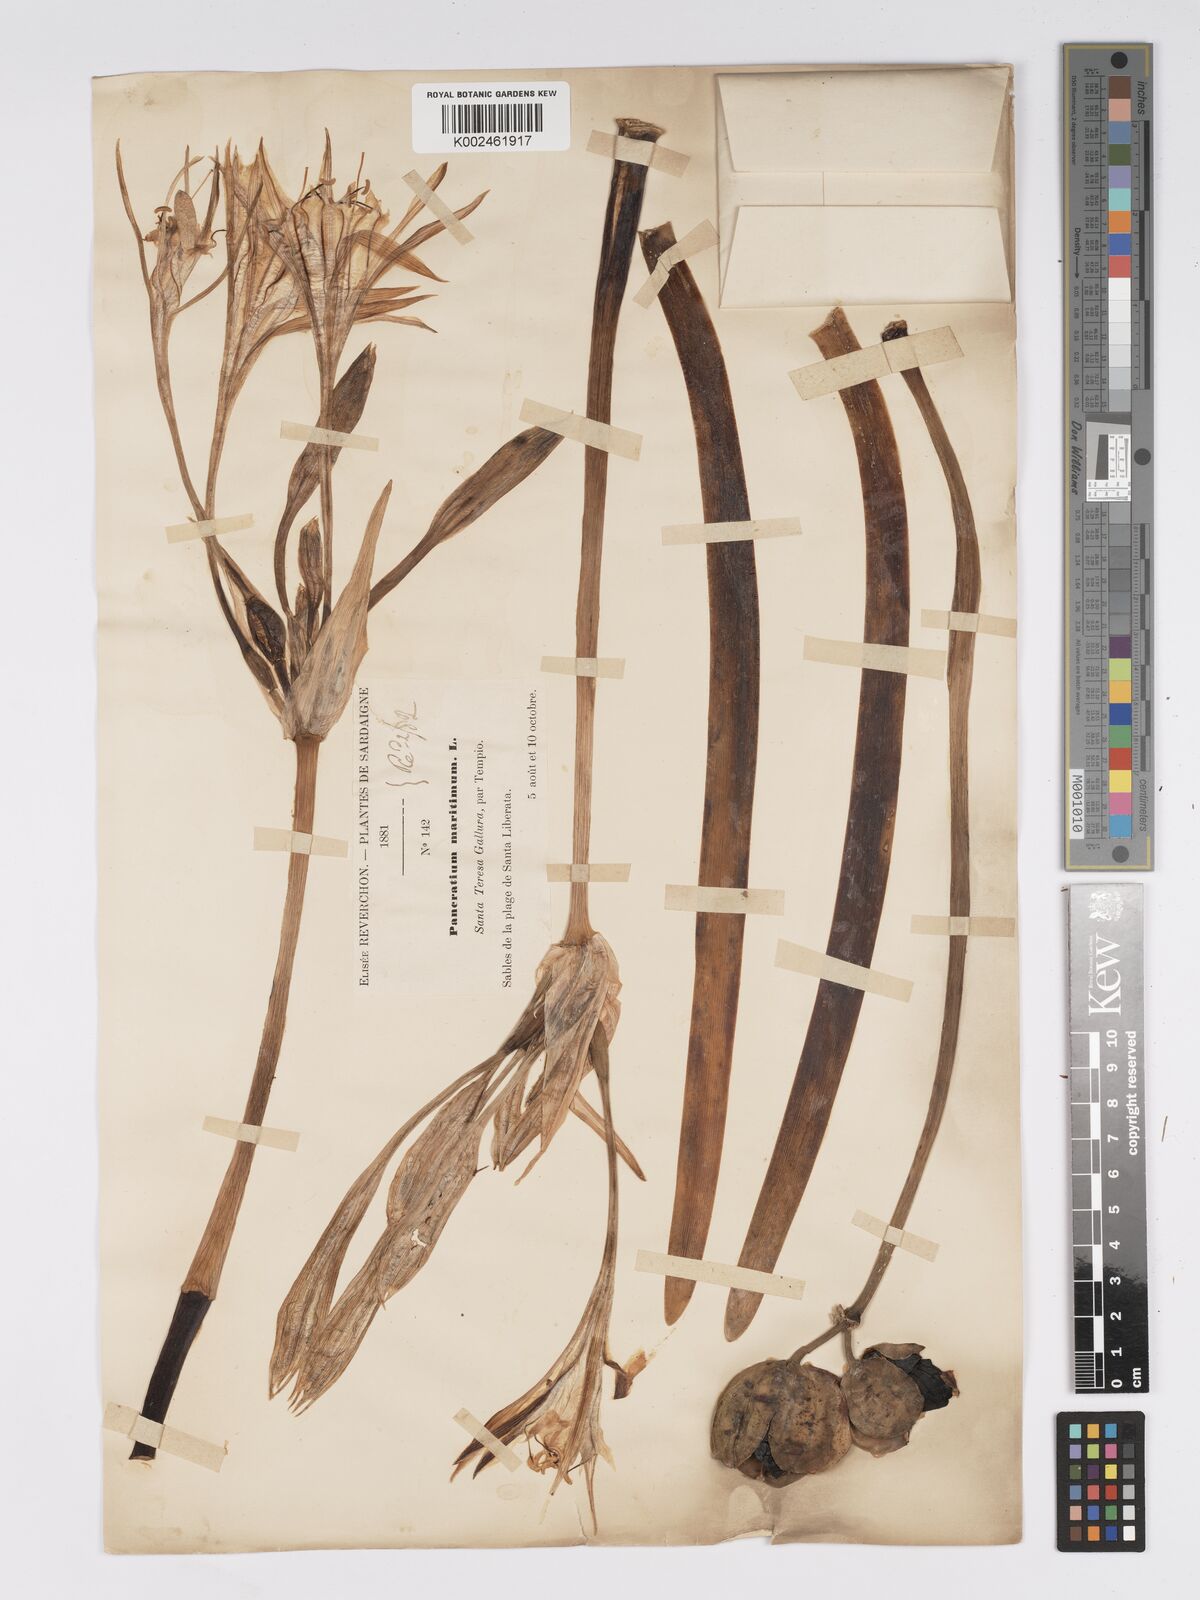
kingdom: Plantae
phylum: Tracheophyta
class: Liliopsida
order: Asparagales
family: Amaryllidaceae
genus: Pancratium
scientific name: Pancratium maritimum
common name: Sea-daffodil
